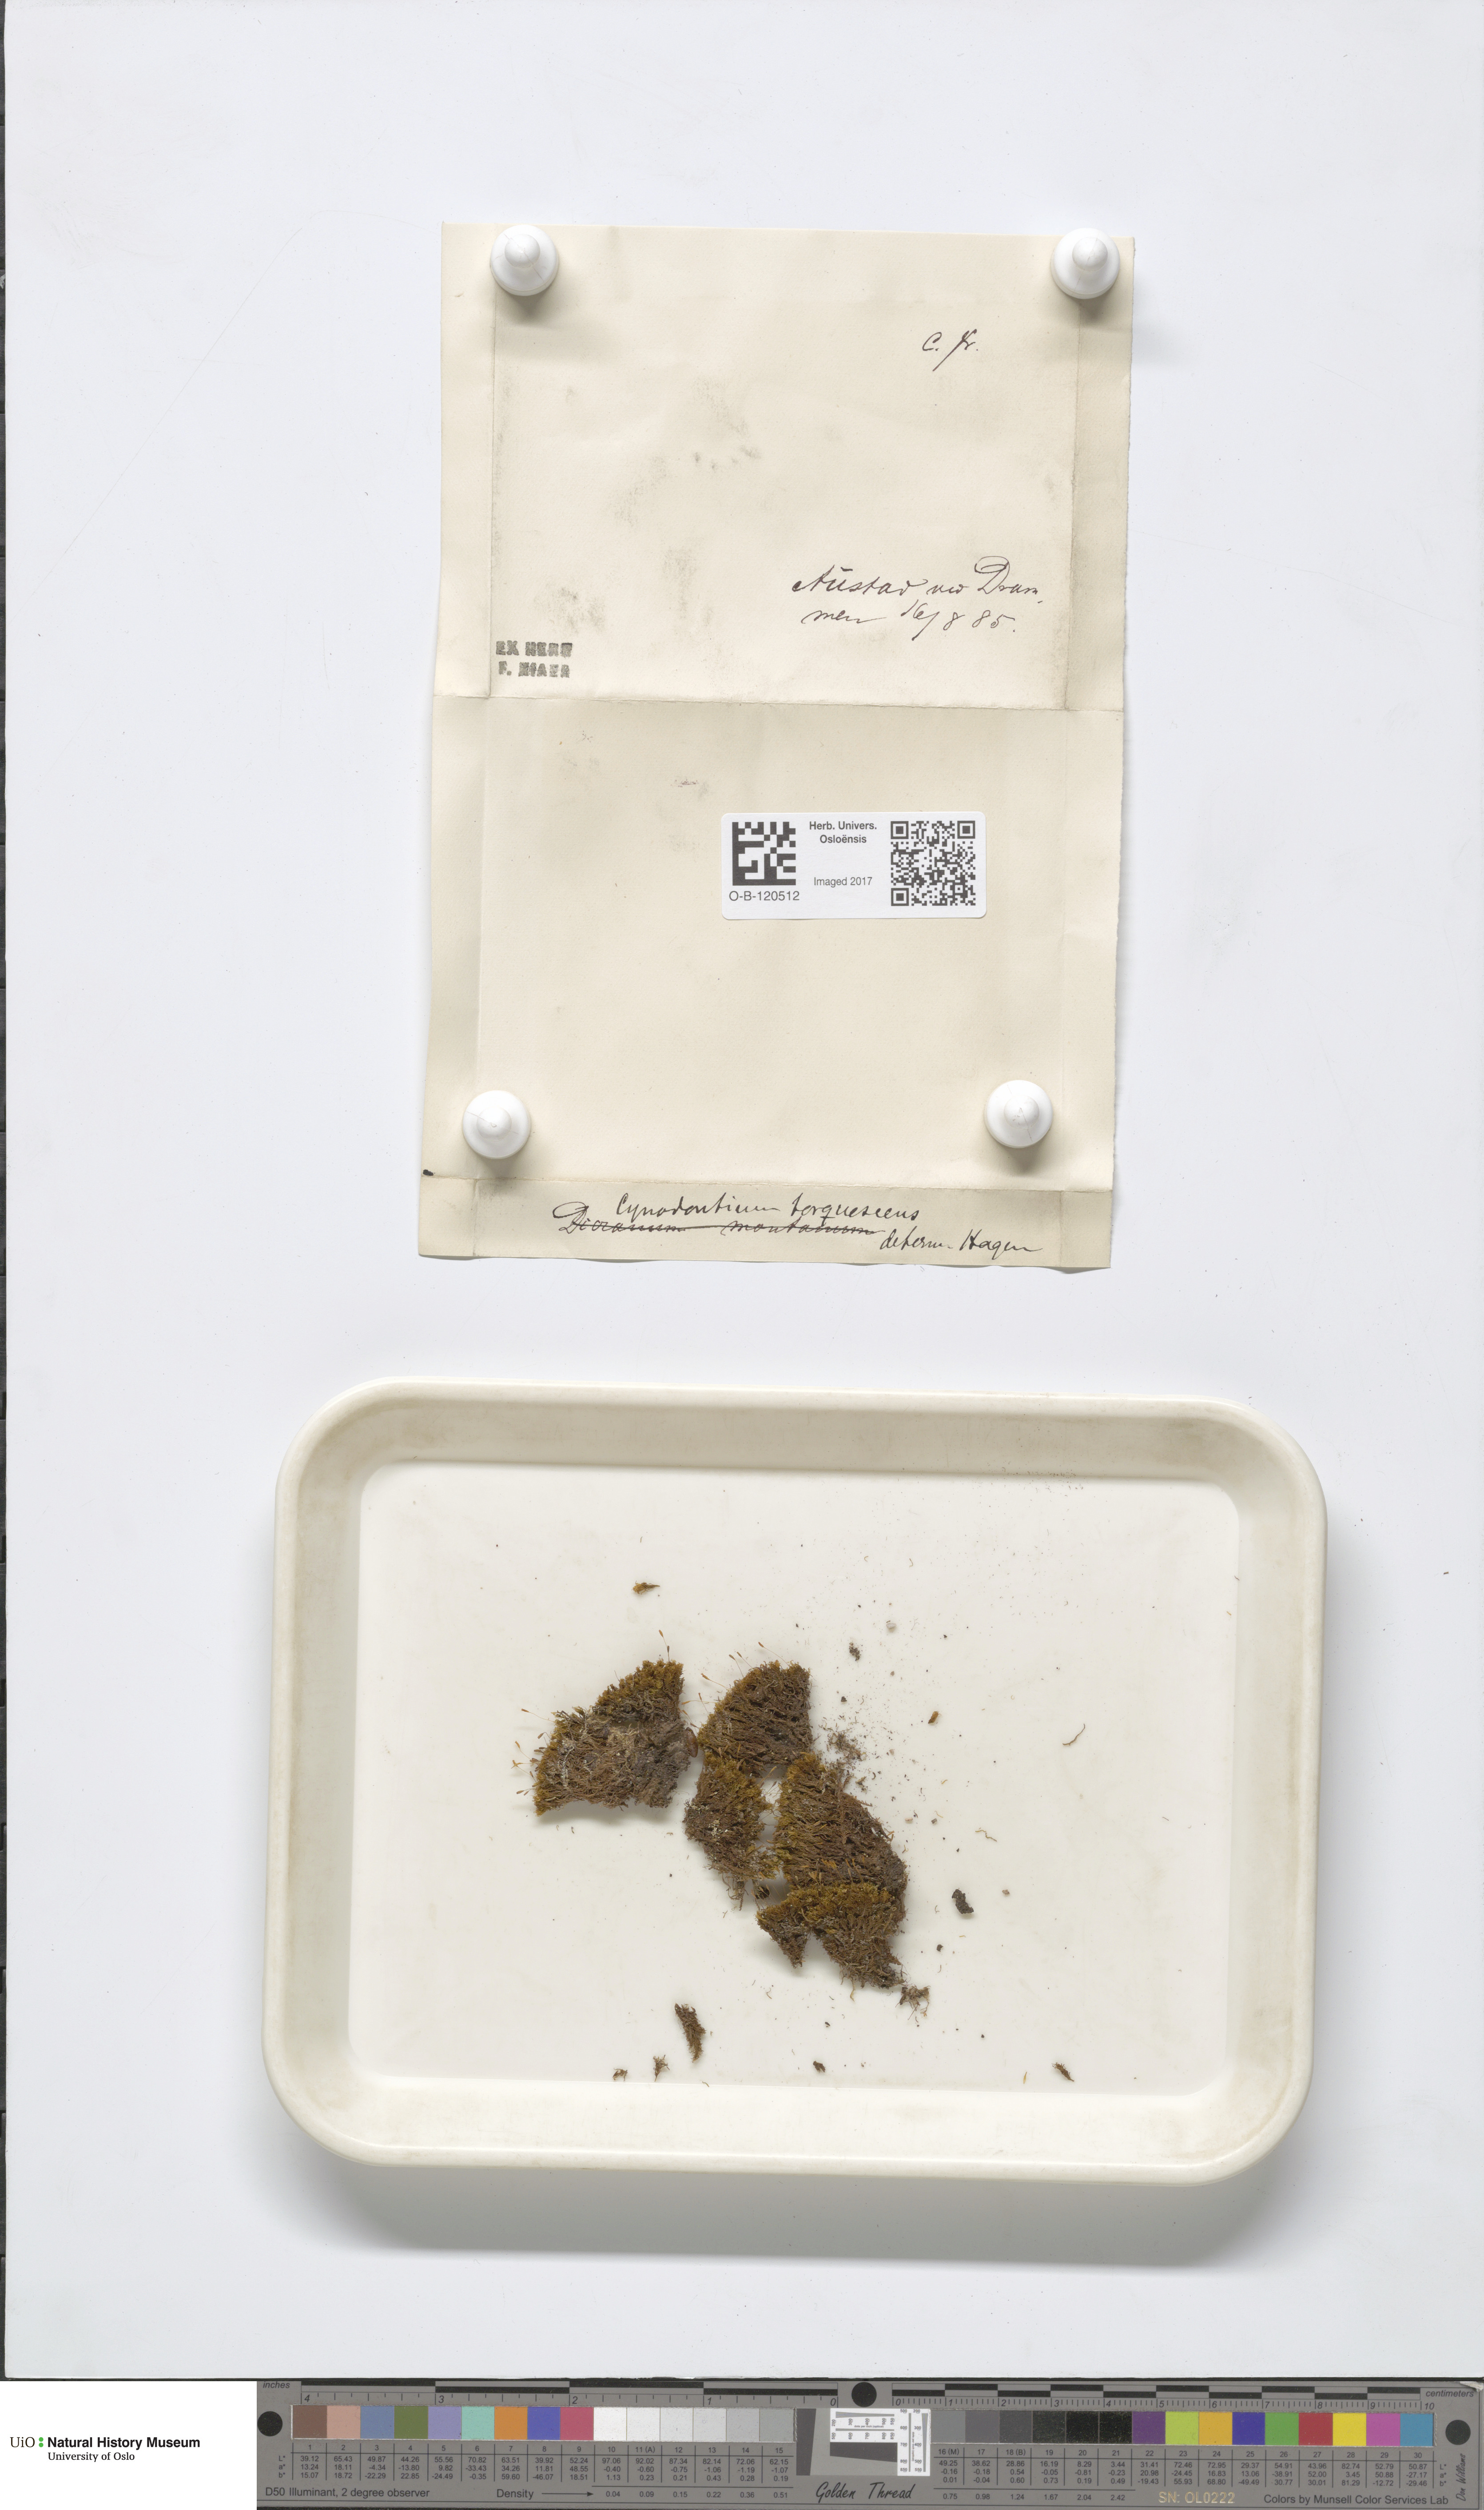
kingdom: Plantae
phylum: Bryophyta
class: Bryopsida
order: Dicranales
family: Rhabdoweisiaceae
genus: Cynodontium
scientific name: Cynodontium tenellum
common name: Delicate dogtooth moss
